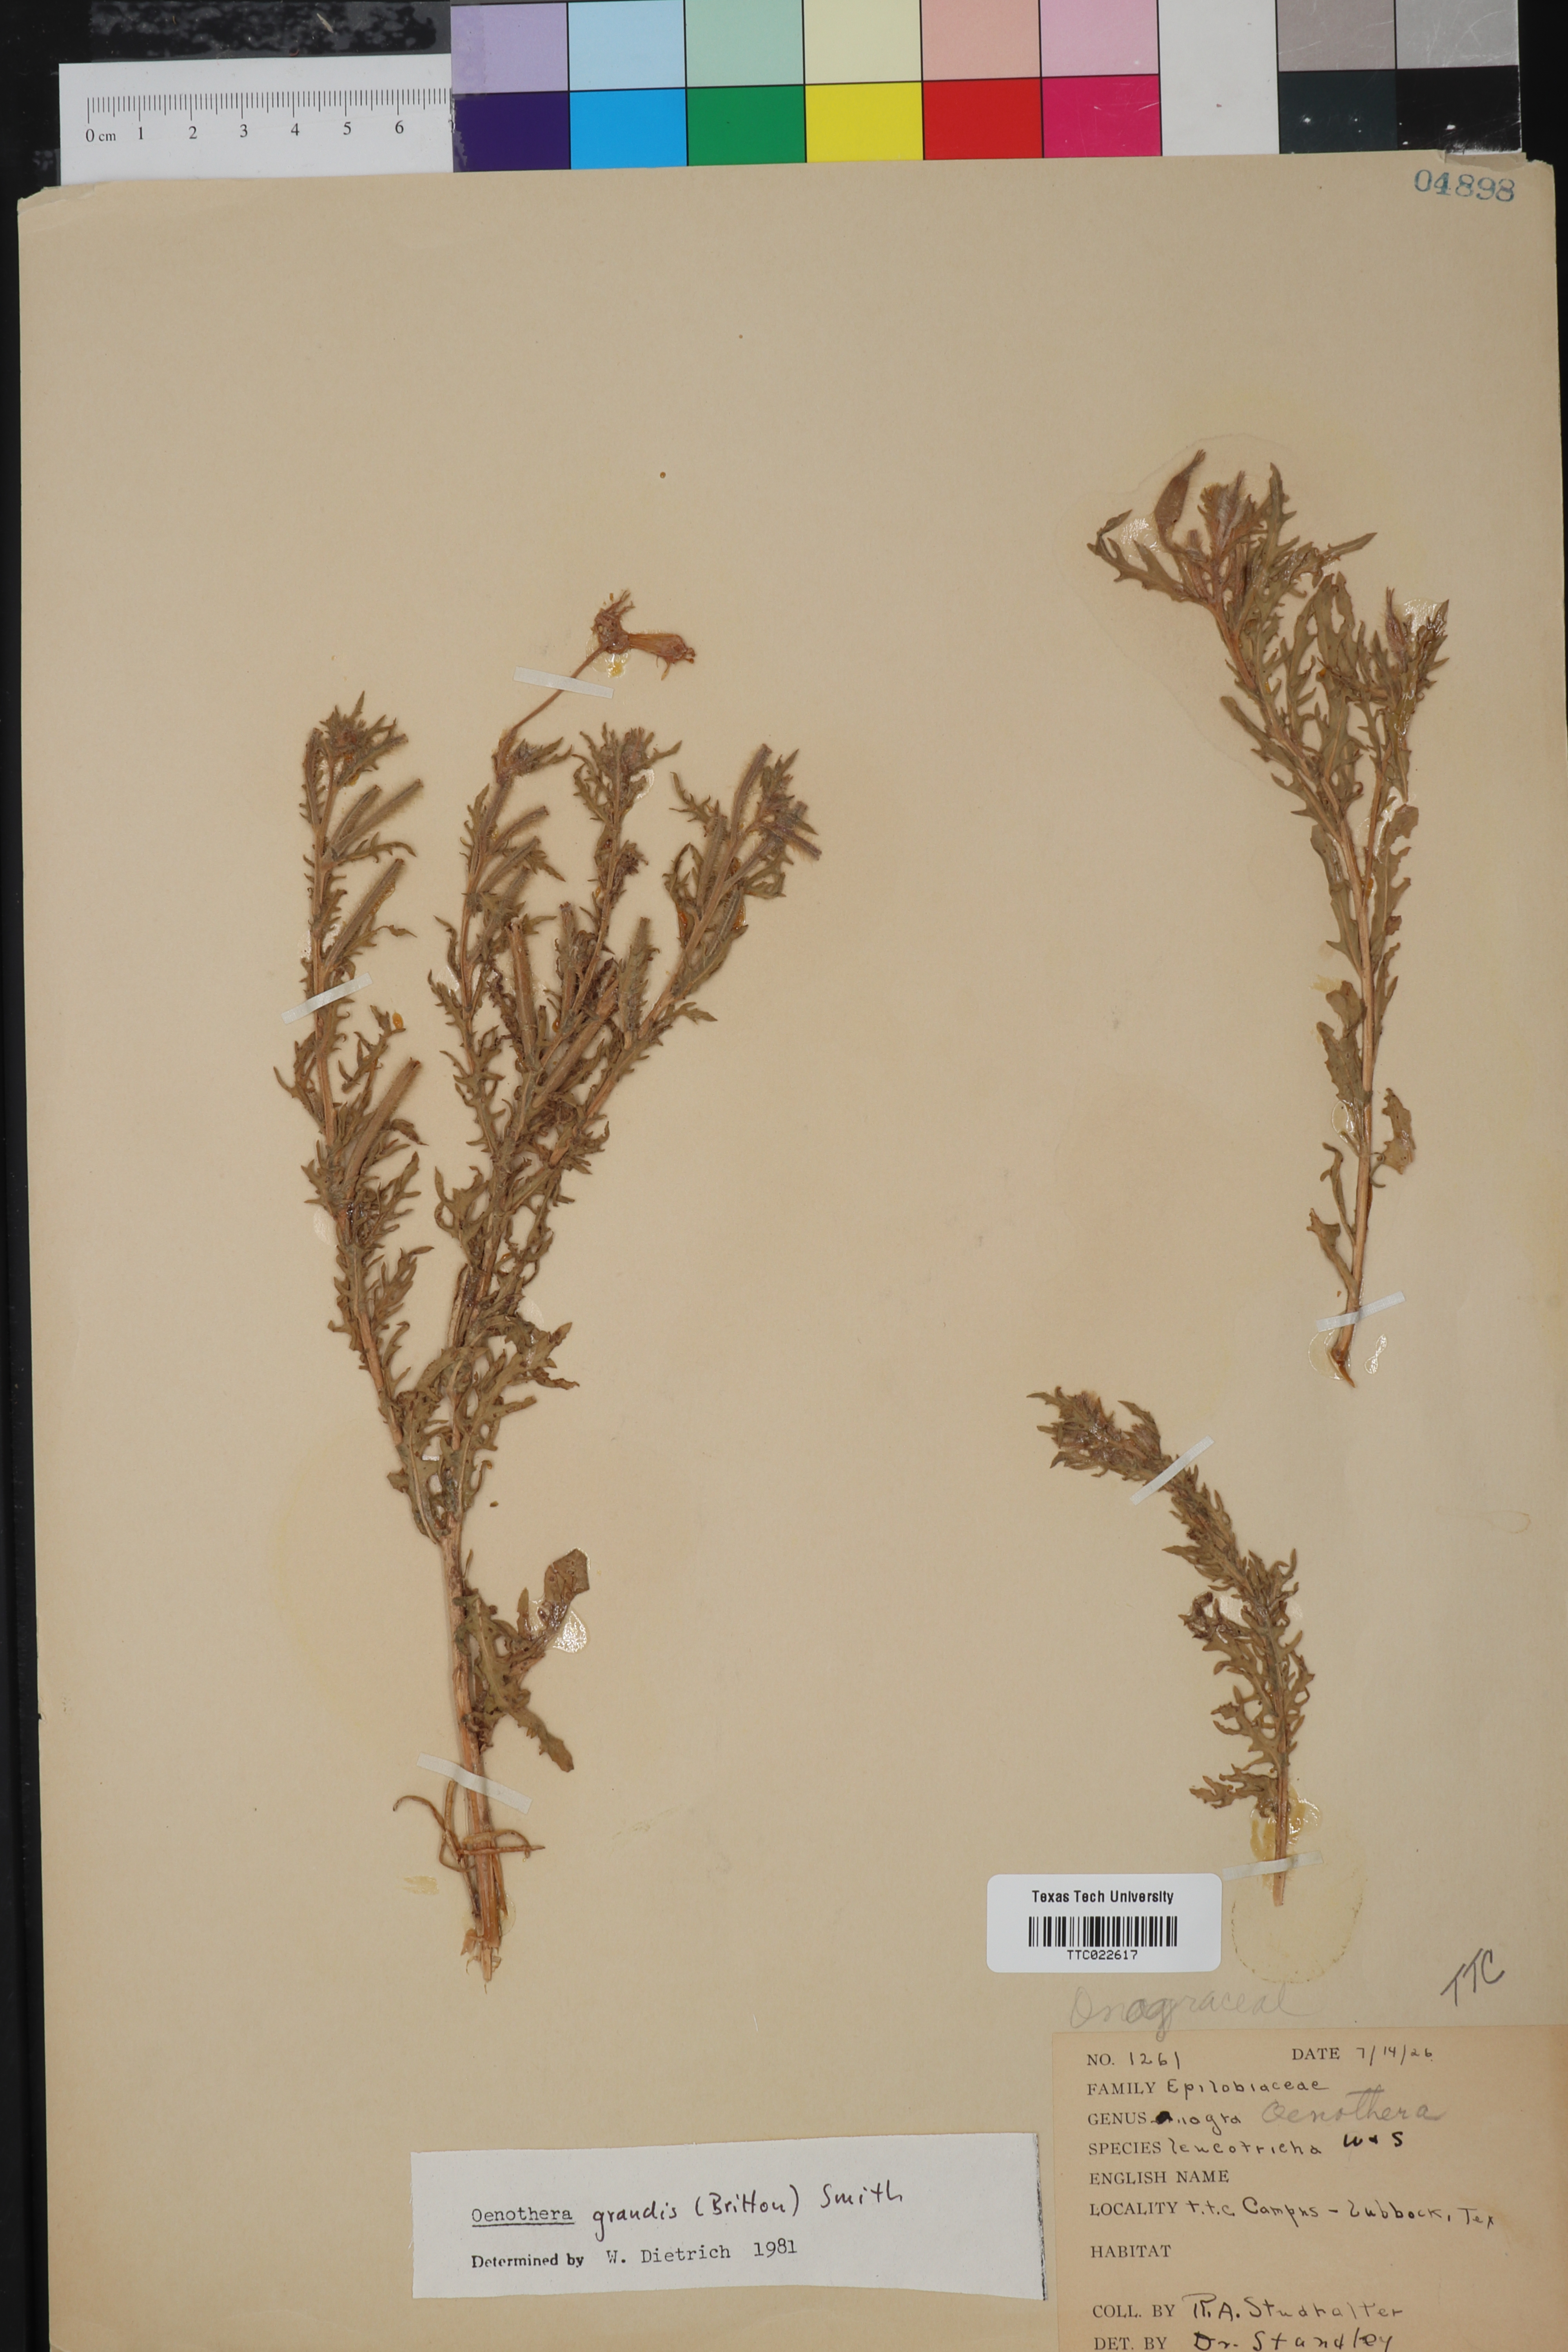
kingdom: Plantae
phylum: Tracheophyta
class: Magnoliopsida
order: Myrtales
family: Onagraceae
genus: Oenothera
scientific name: Oenothera grandis
